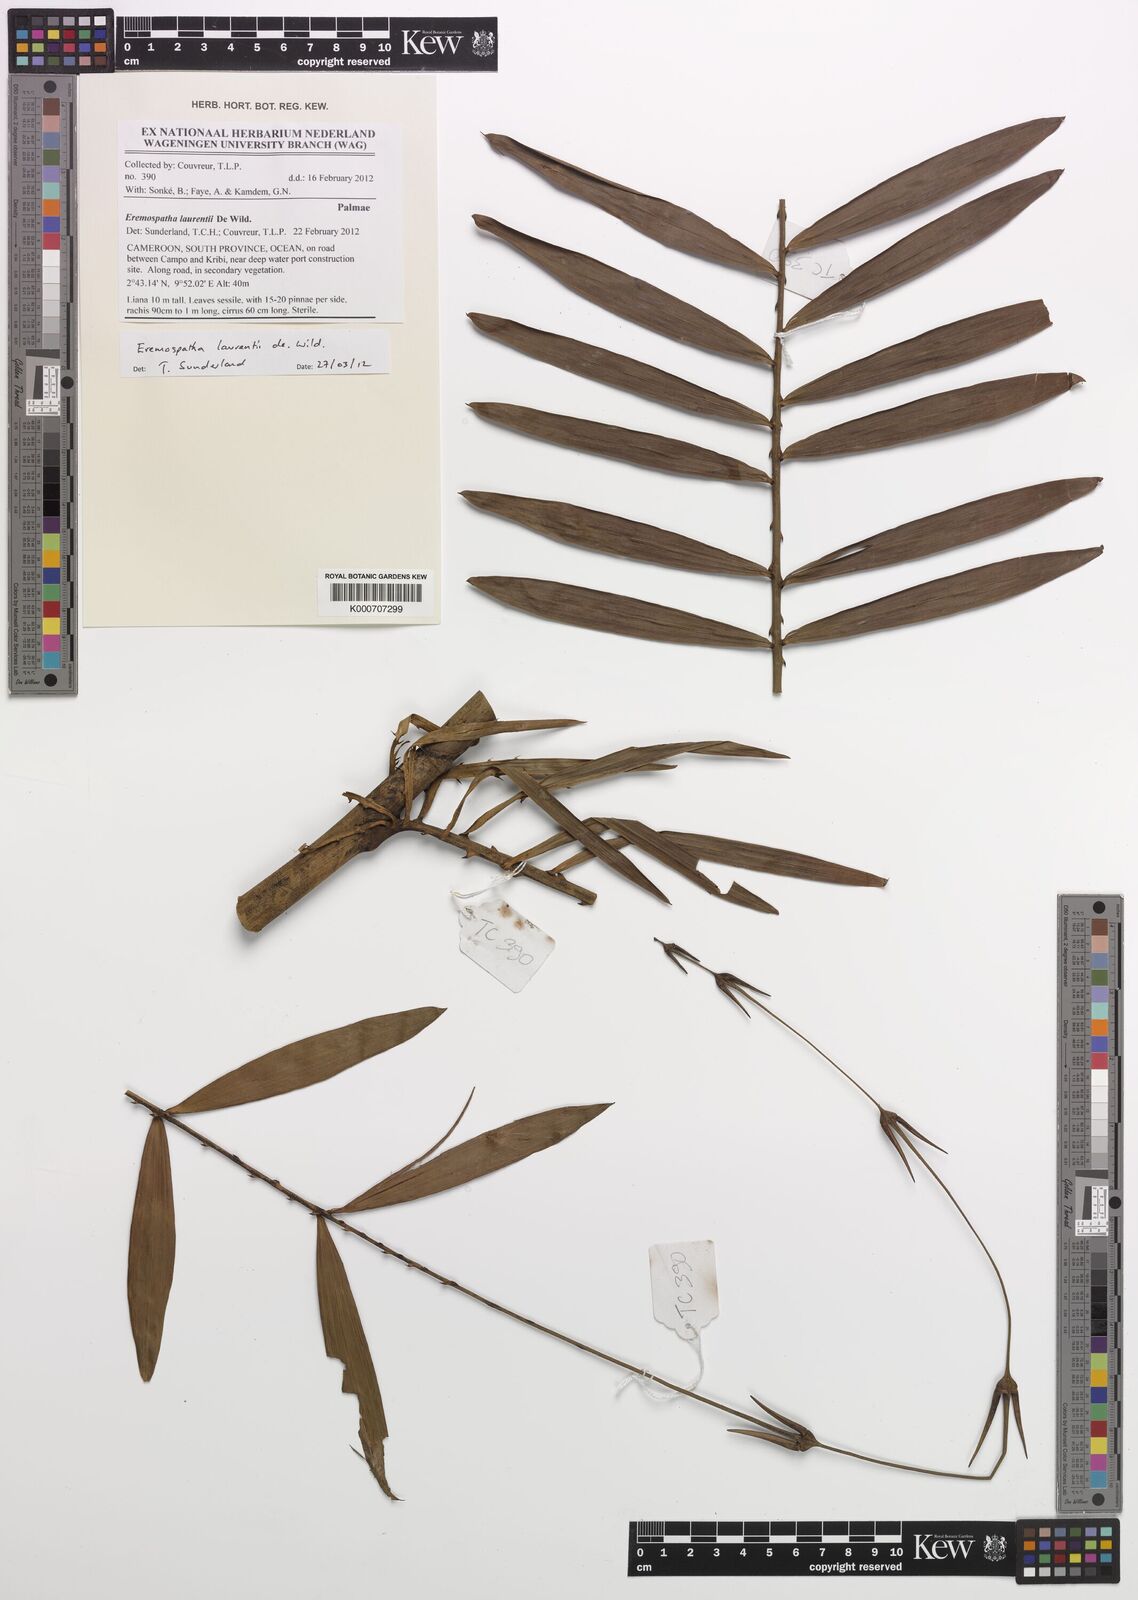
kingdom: Plantae
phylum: Tracheophyta
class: Liliopsida
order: Arecales
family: Arecaceae
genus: Eremospatha
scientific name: Eremospatha laurentii
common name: Rattan palm
